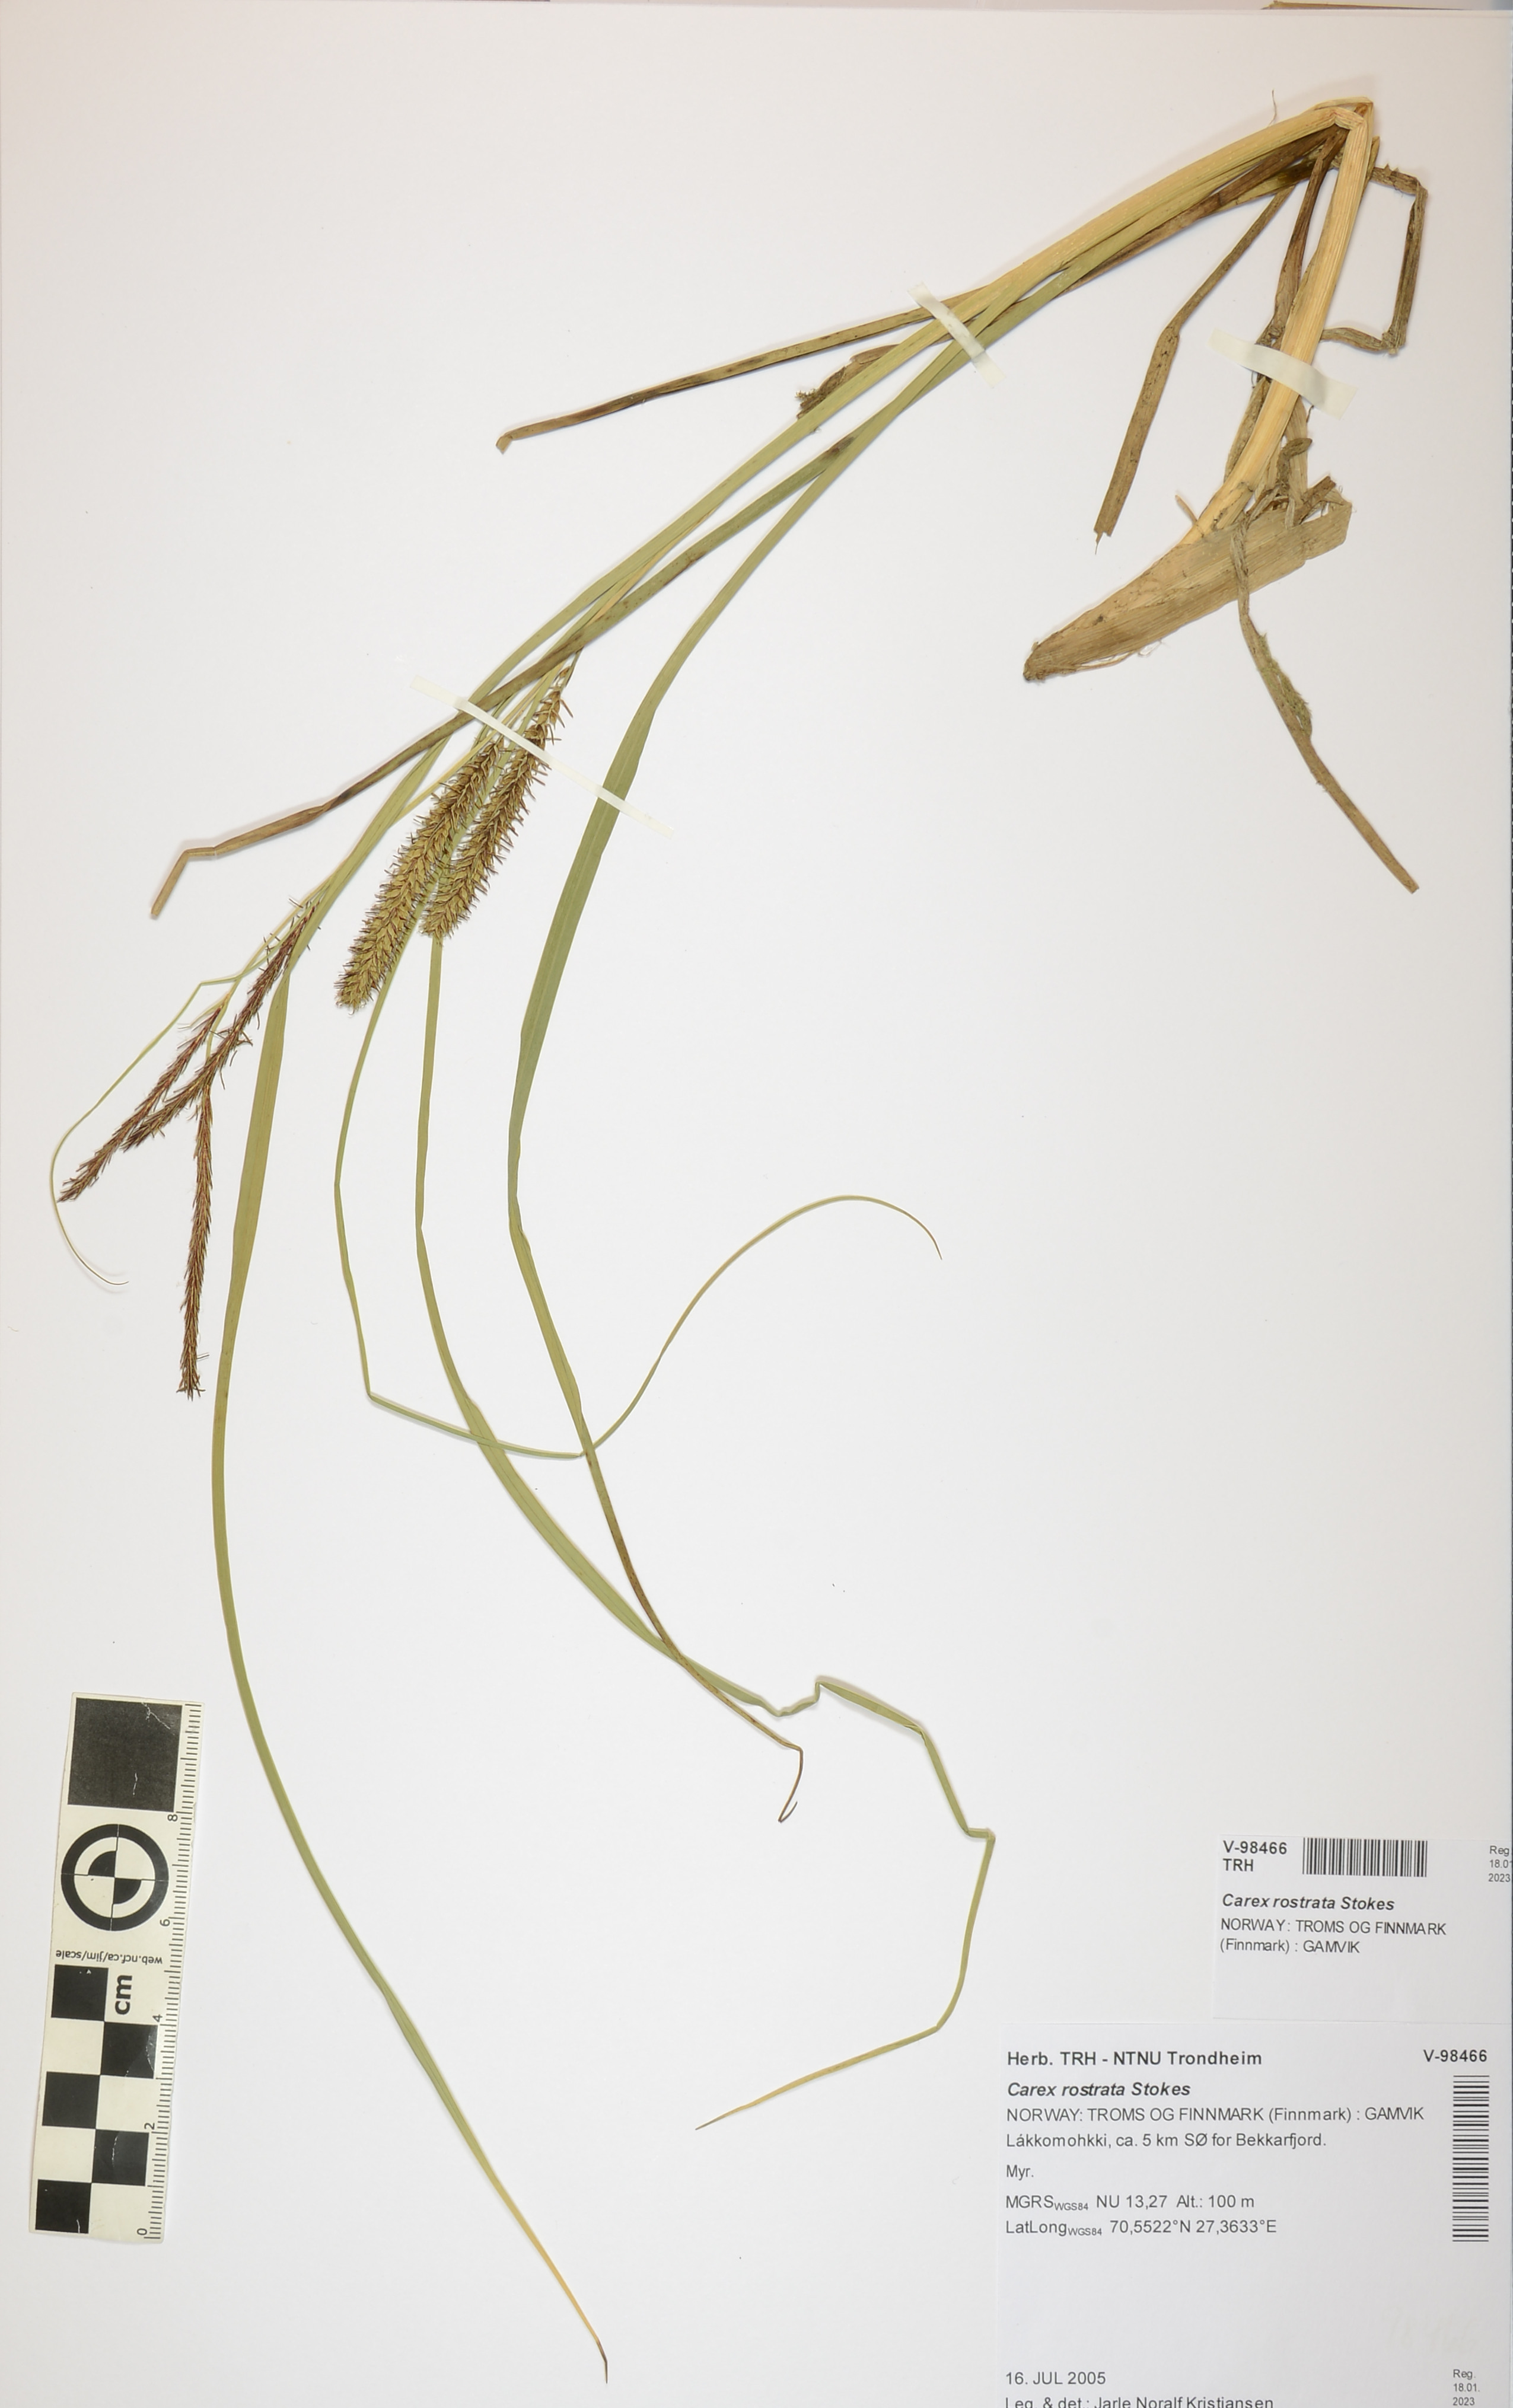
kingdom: Plantae
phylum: Tracheophyta
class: Liliopsida
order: Poales
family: Cyperaceae
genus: Carex
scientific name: Carex rostrata
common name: Bottle sedge
